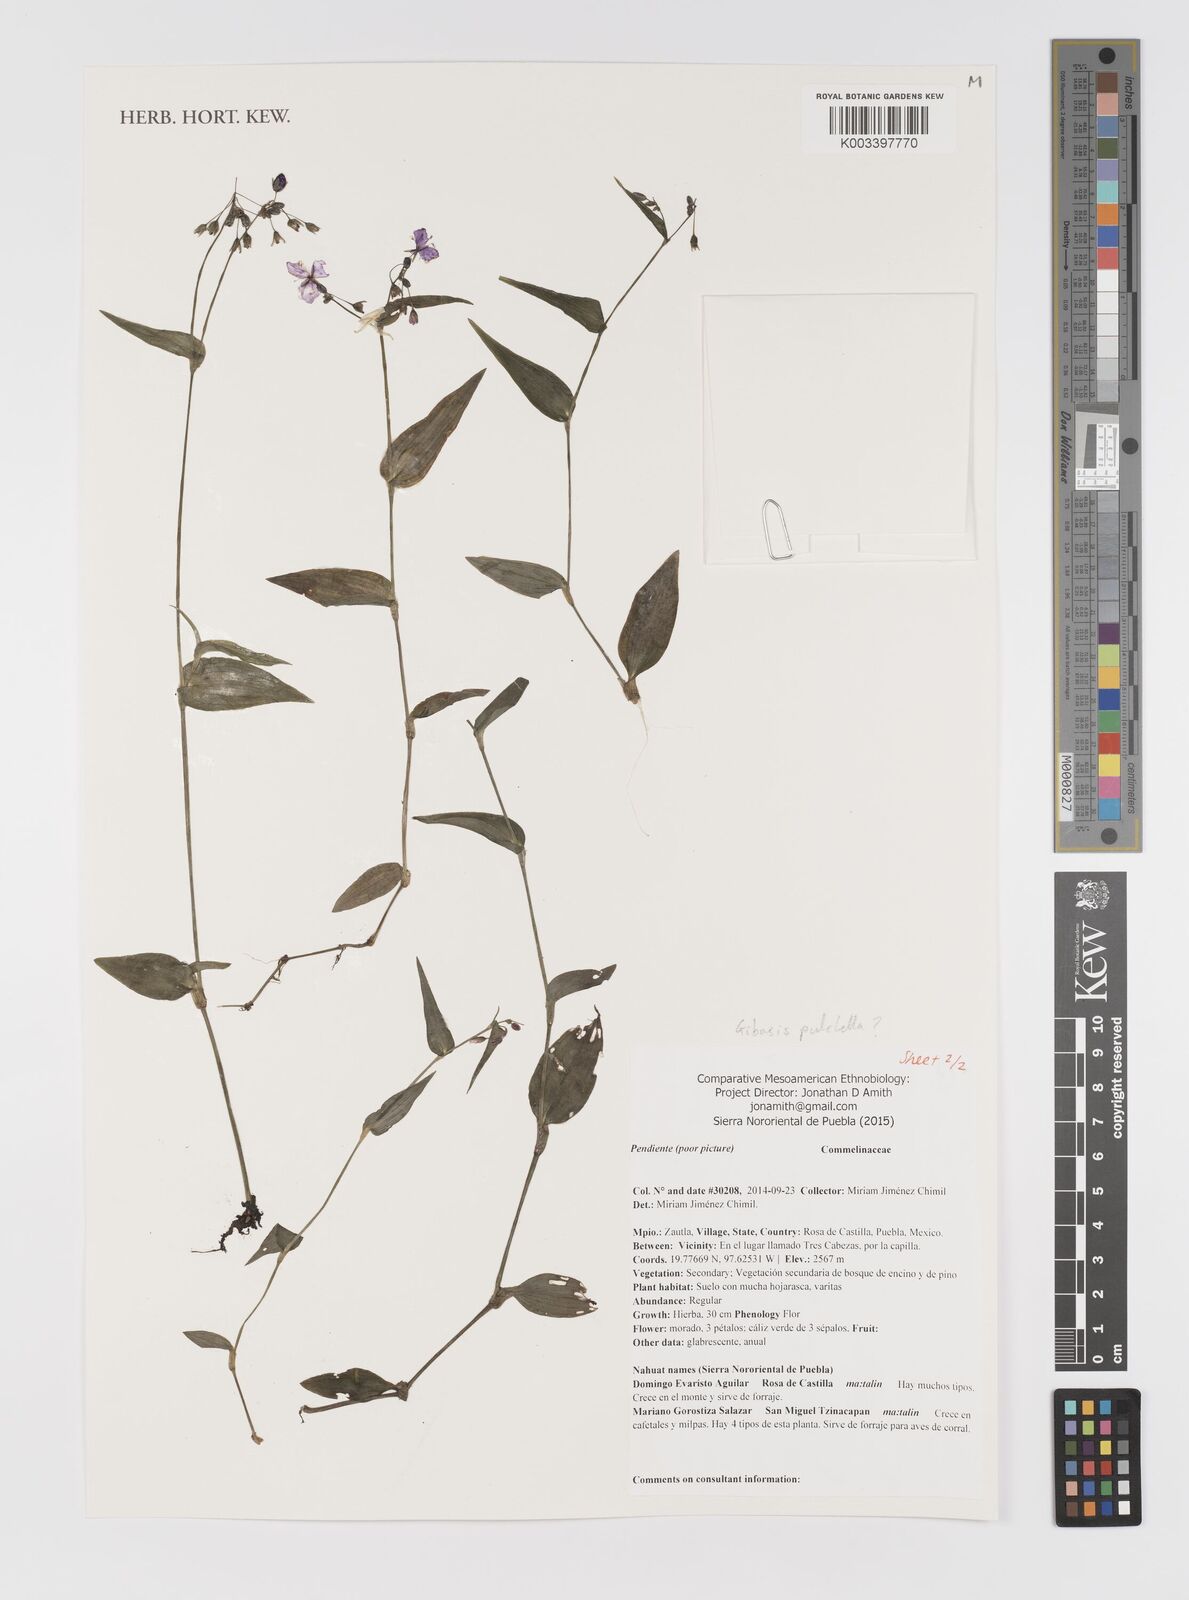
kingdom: Plantae
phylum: Tracheophyta
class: Liliopsida
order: Commelinales
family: Commelinaceae
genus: Gibasis
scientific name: Gibasis pulchella
